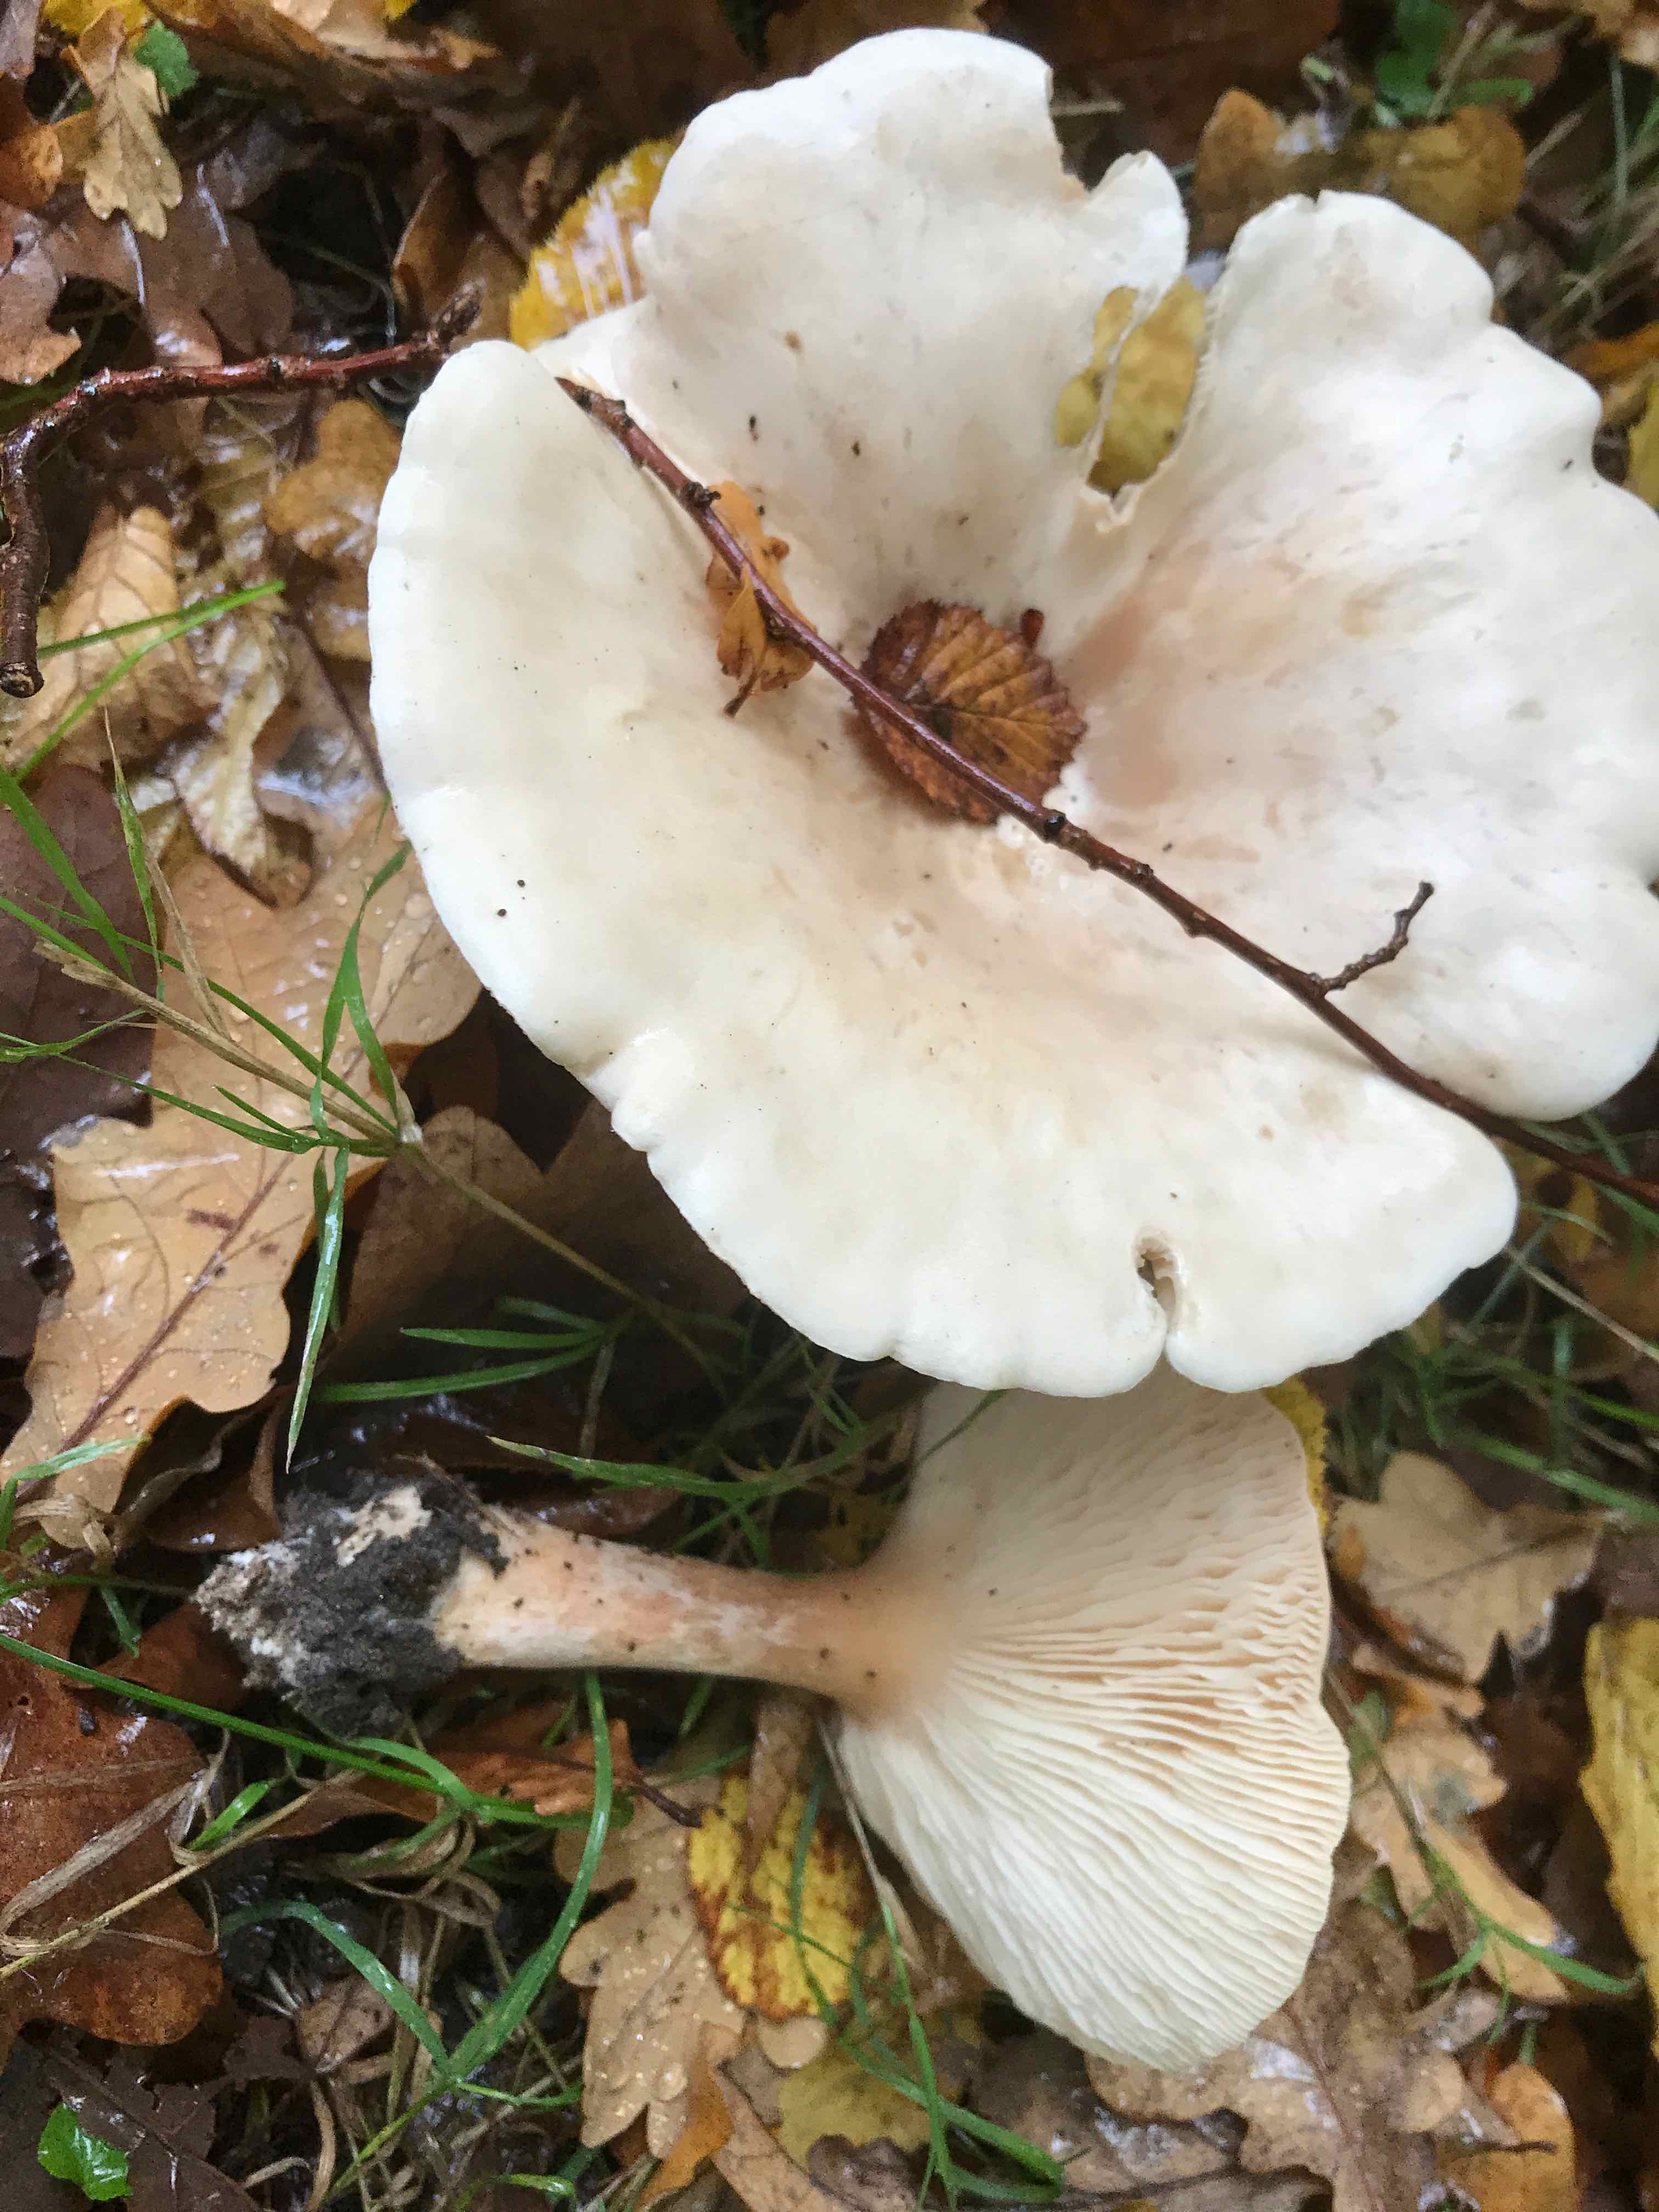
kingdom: Fungi
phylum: Basidiomycota
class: Agaricomycetes
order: Agaricales
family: Tricholomataceae
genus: Infundibulicybe
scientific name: Infundibulicybe geotropa
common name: stor tragthat
